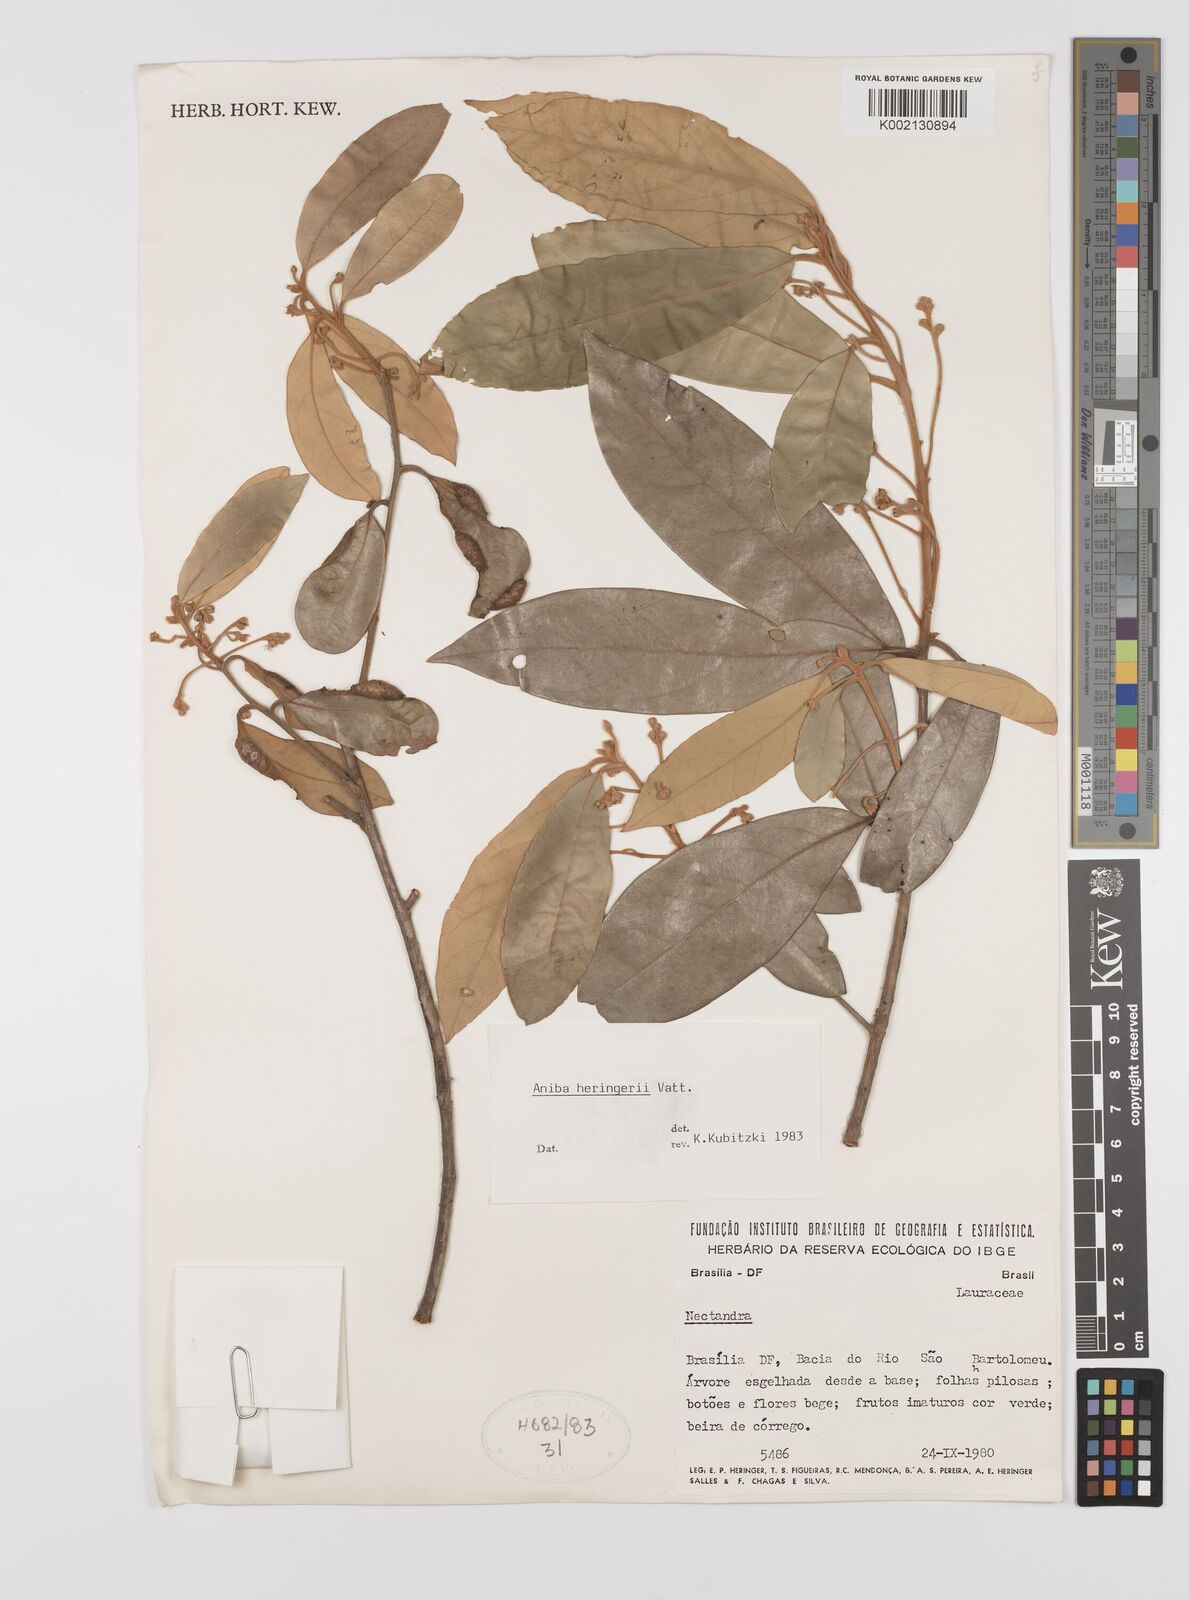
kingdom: Plantae
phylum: Tracheophyta
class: Magnoliopsida
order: Laurales
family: Lauraceae
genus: Aniba
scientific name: Aniba heringeri
